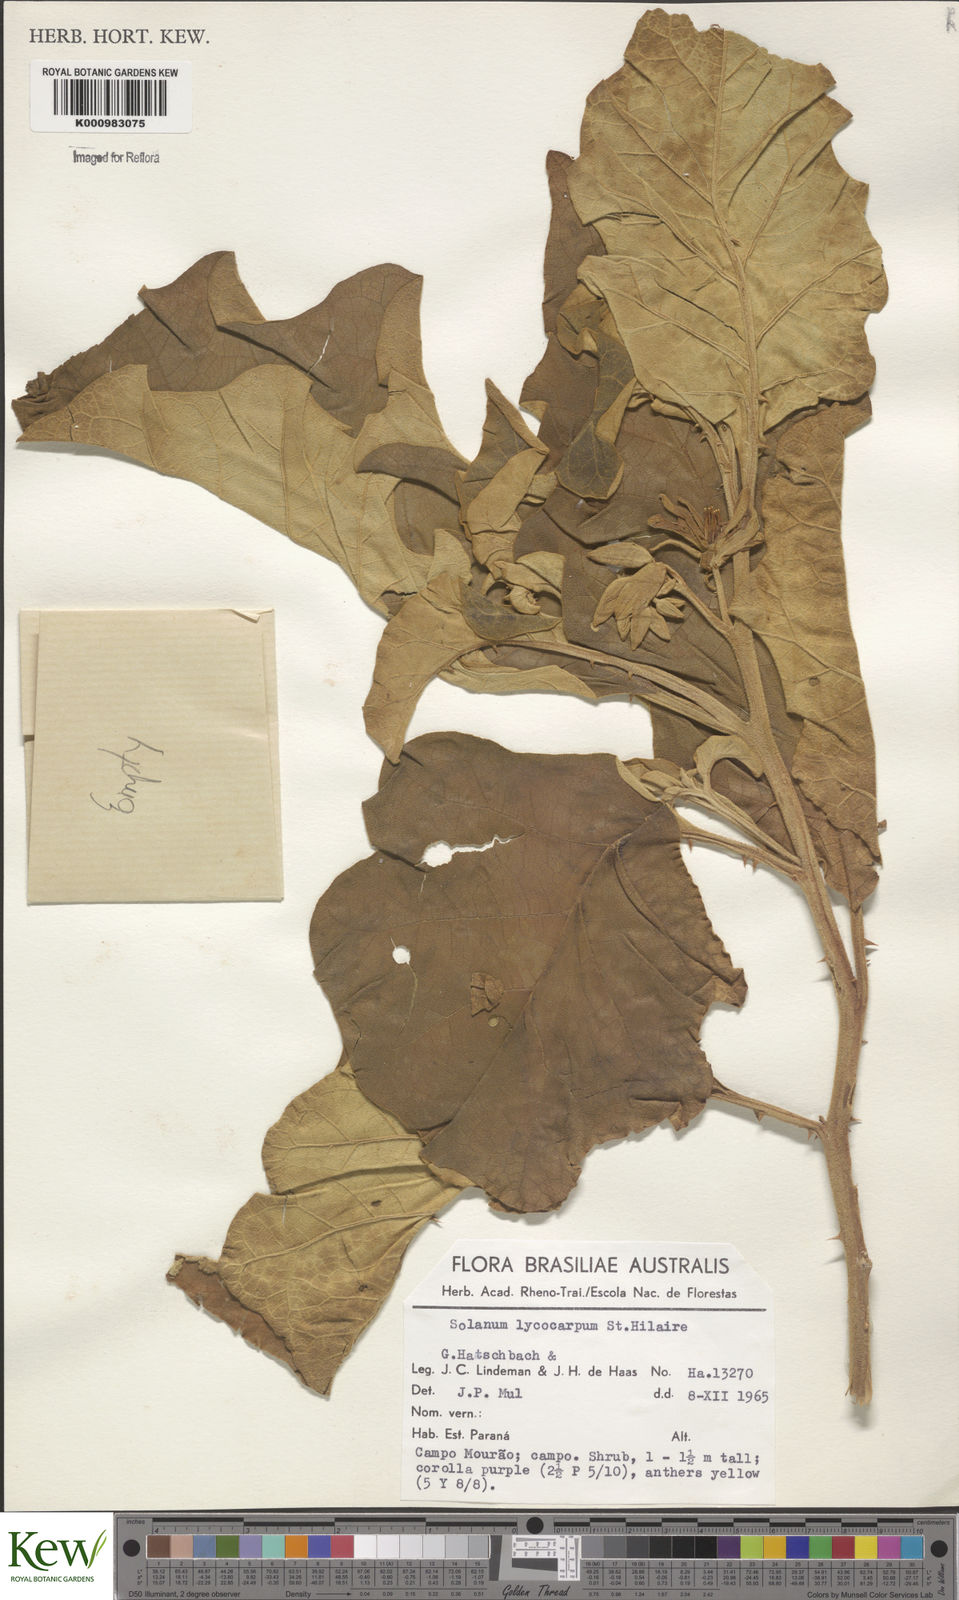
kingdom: Plantae
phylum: Tracheophyta
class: Magnoliopsida
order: Solanales
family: Solanaceae
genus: Solanum
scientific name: Solanum lycocarpum
